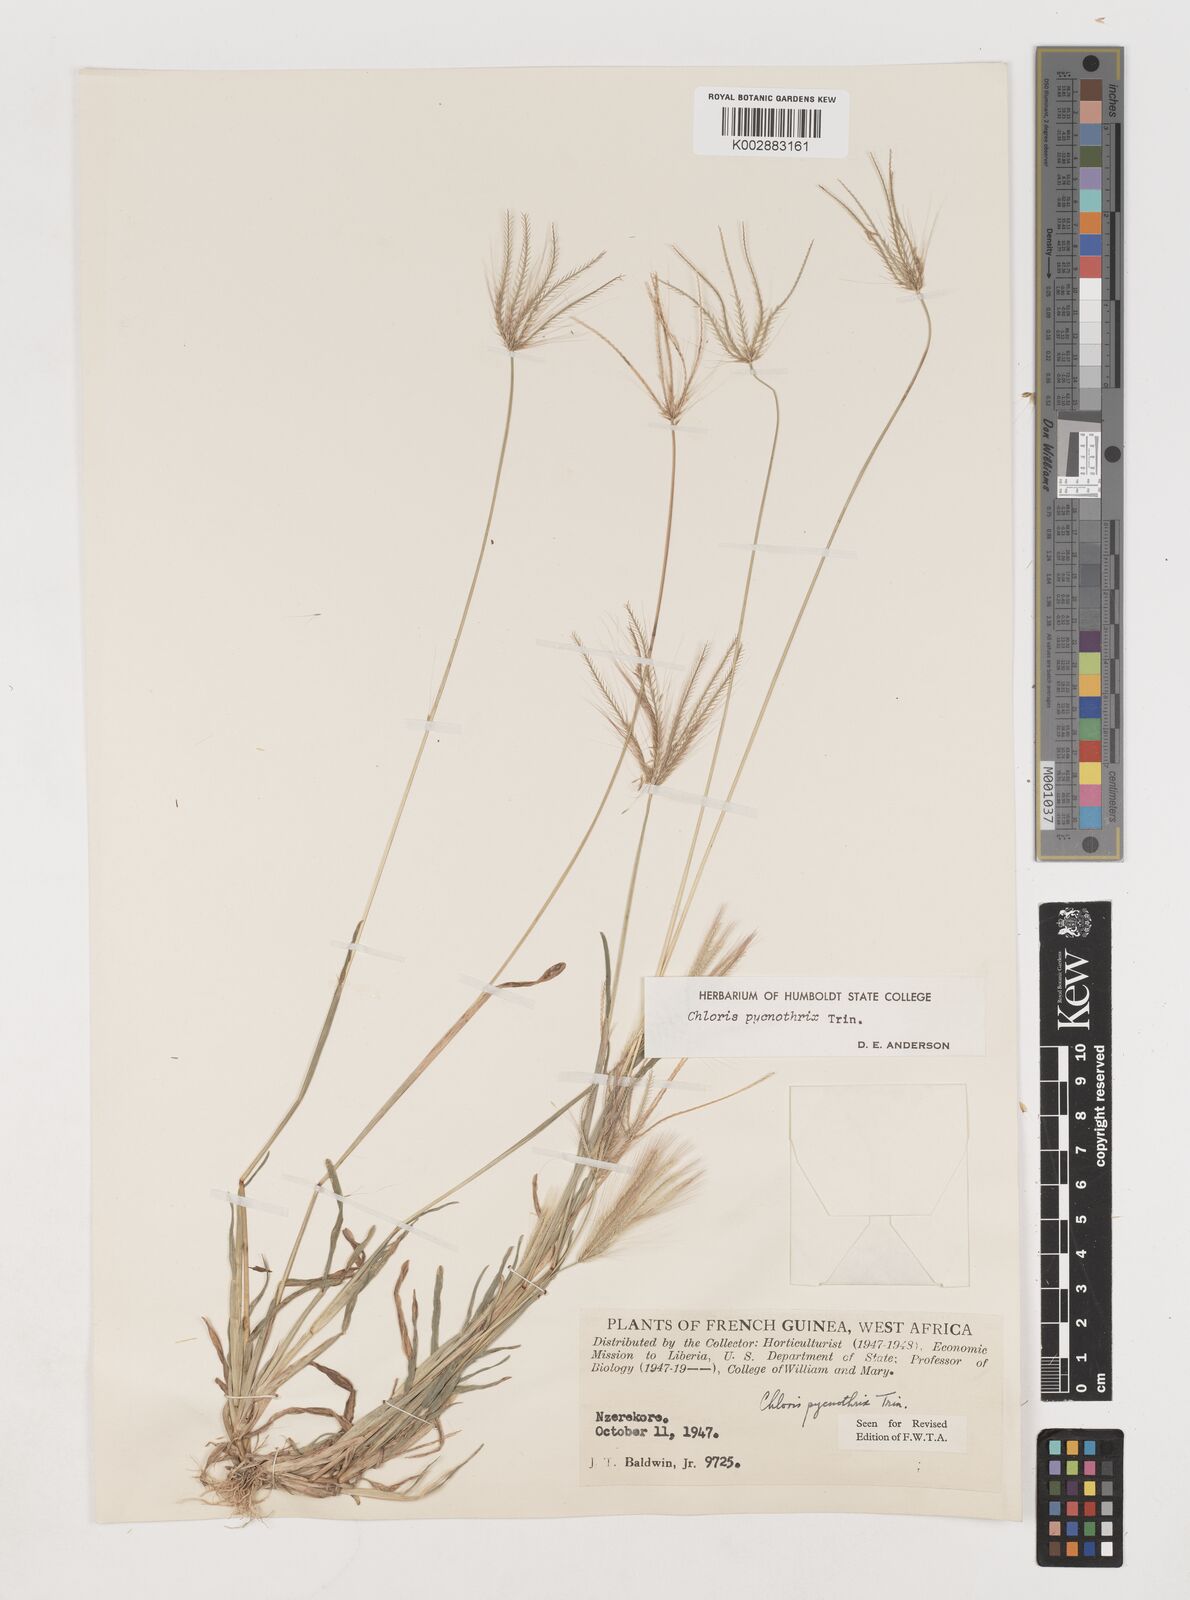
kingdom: Plantae
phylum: Tracheophyta
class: Liliopsida
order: Poales
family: Poaceae
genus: Chloris
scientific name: Chloris pycnothrix
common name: Spiderweb chloris
